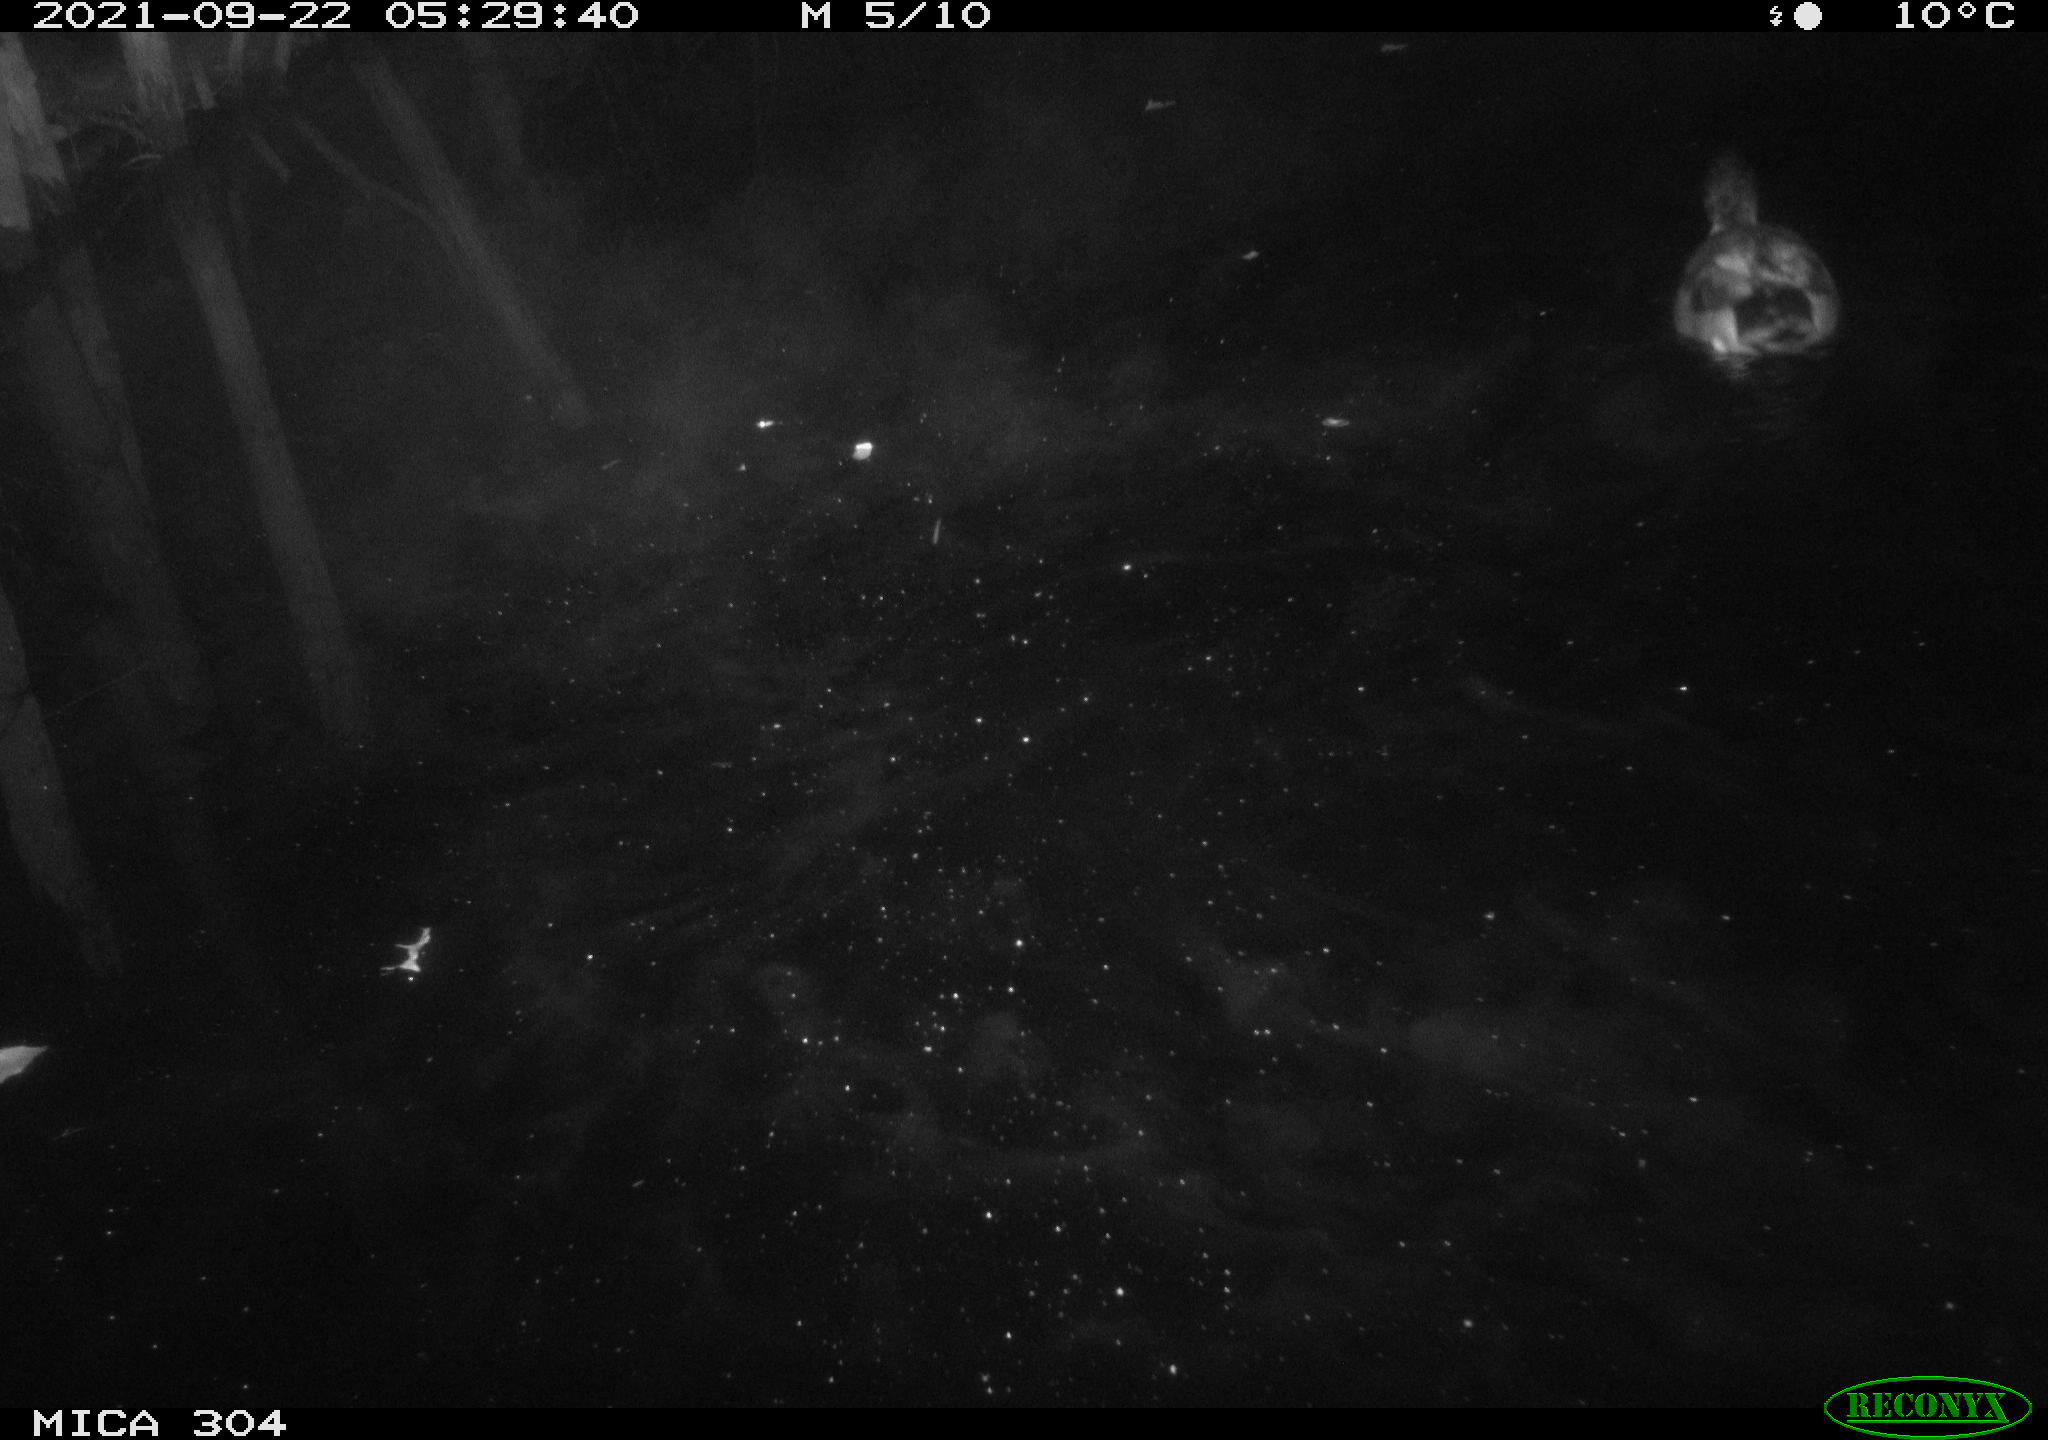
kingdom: Animalia
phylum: Chordata
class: Aves
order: Anseriformes
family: Anatidae
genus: Anas
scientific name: Anas platyrhynchos
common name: Mallard
